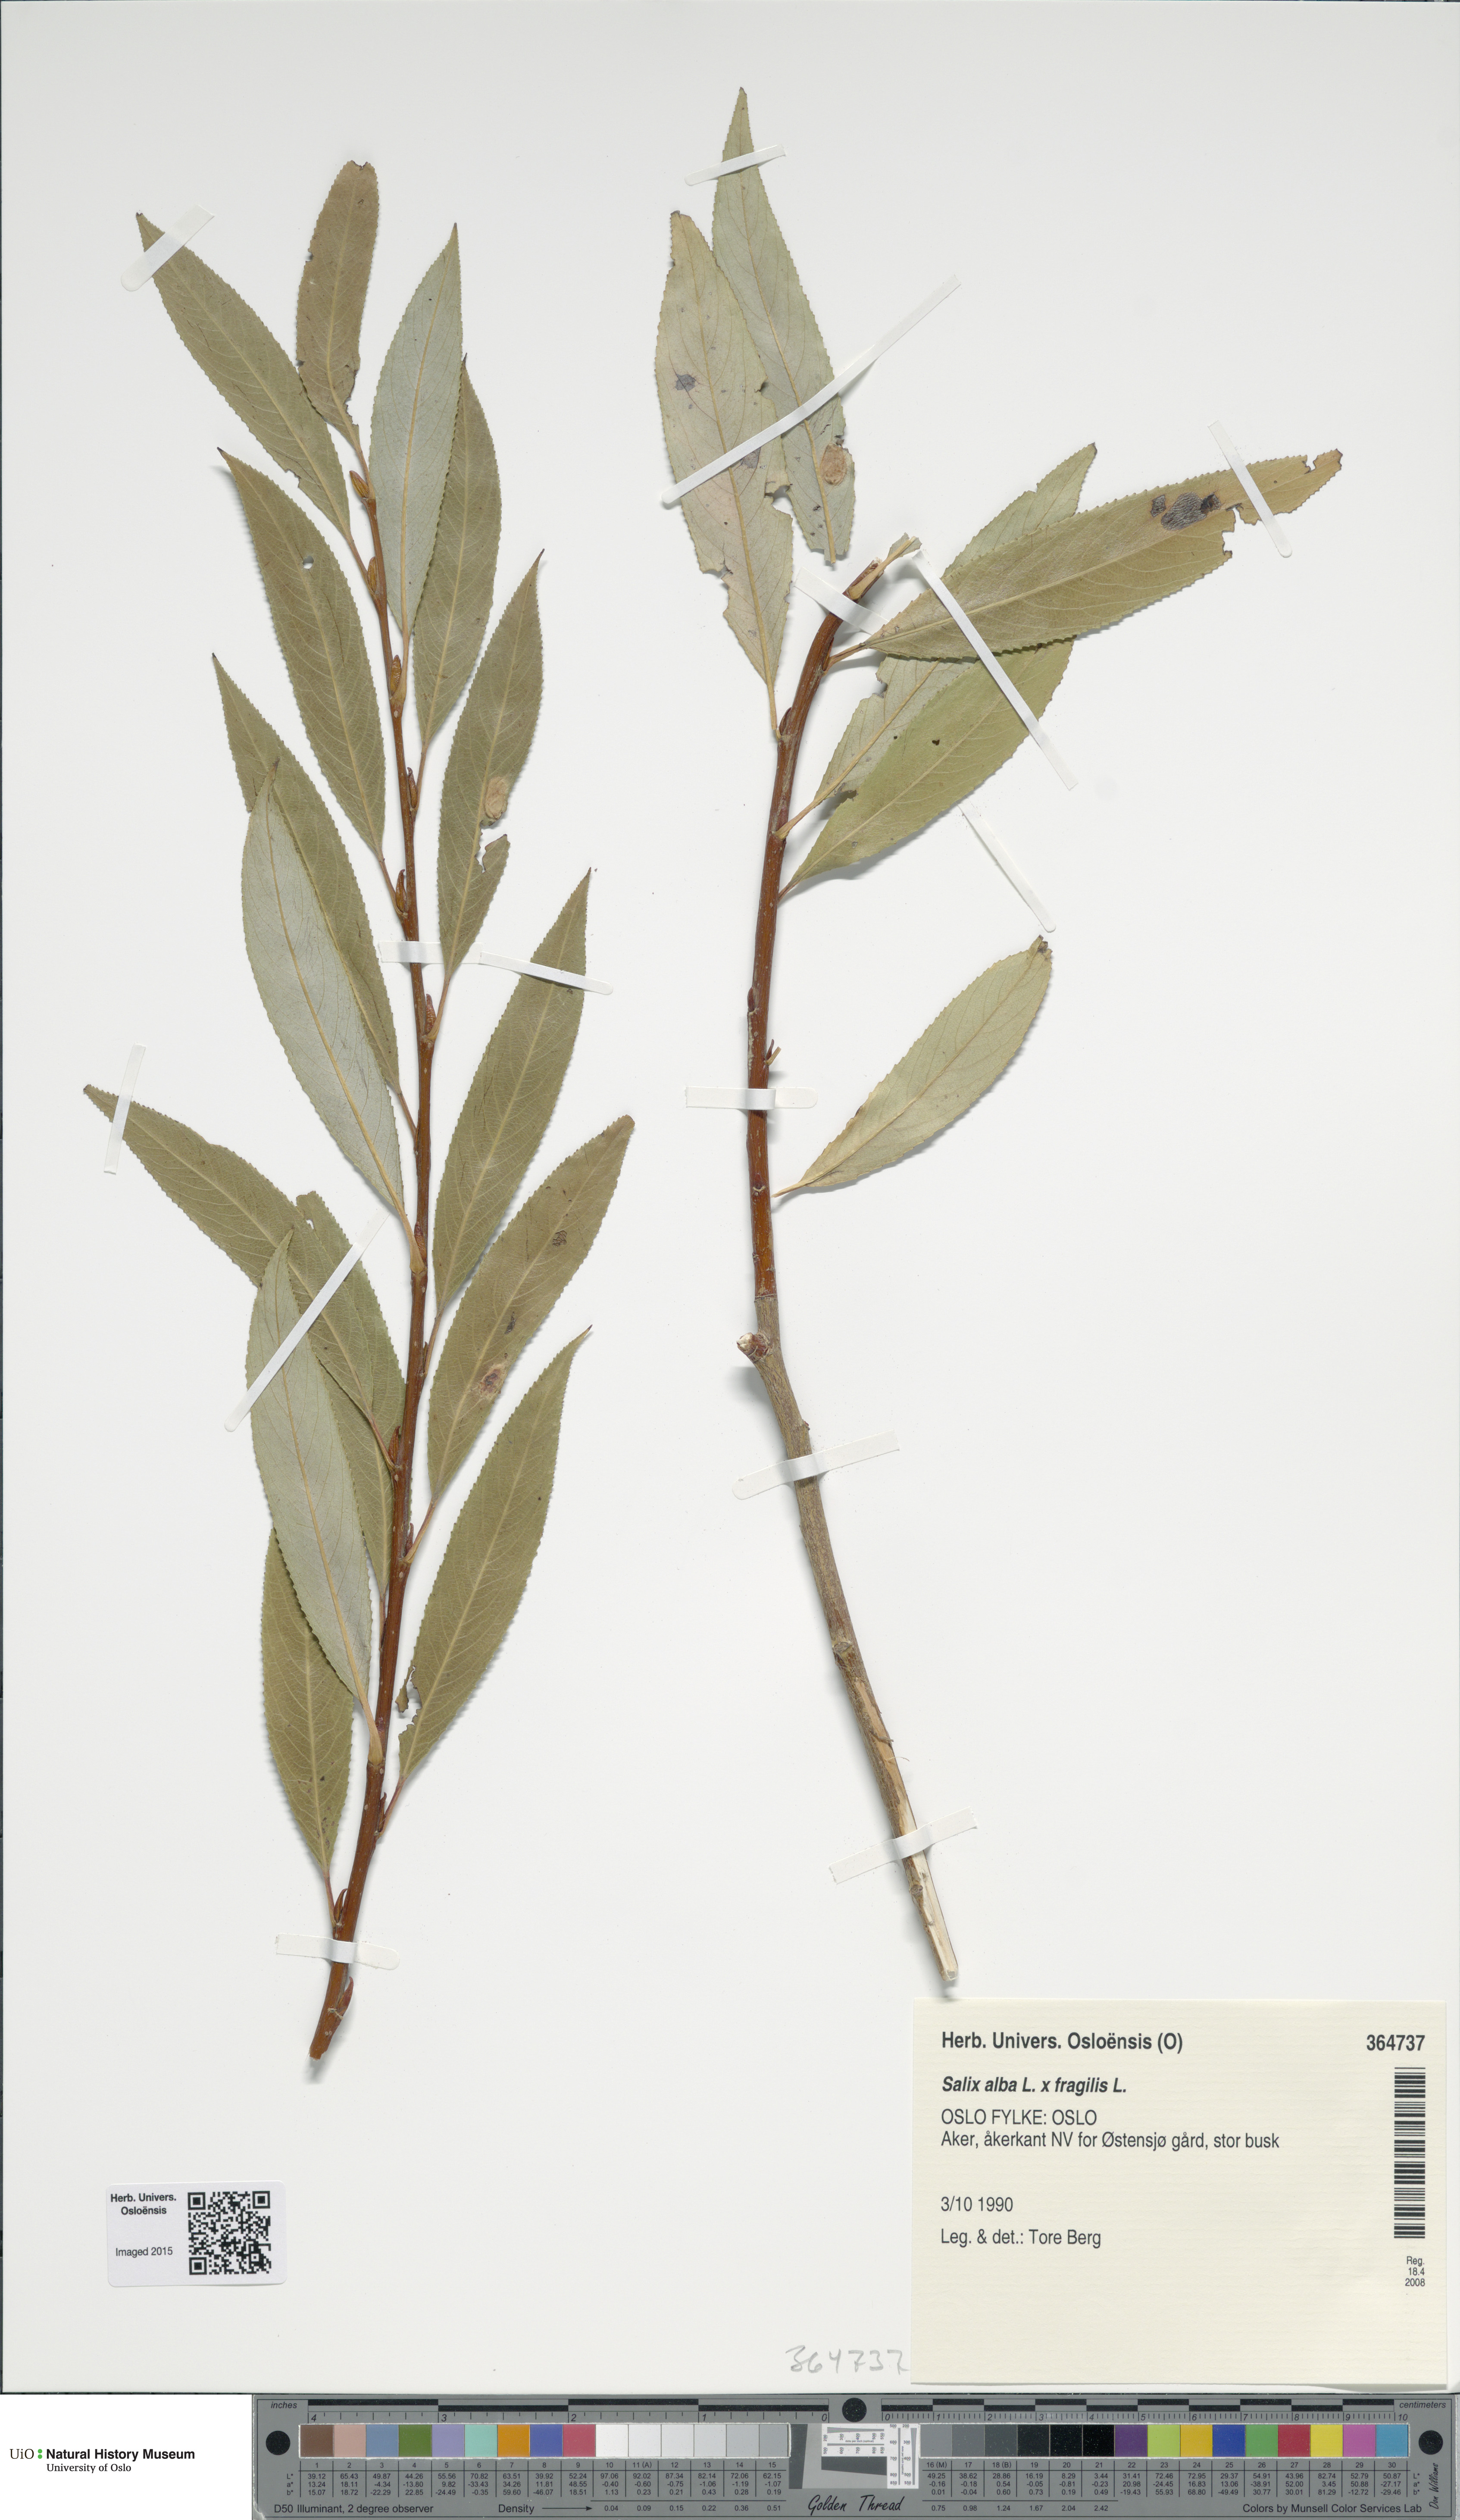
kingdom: Plantae
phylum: Tracheophyta
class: Magnoliopsida
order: Malpighiales
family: Salicaceae
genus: Salix
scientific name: Salix
